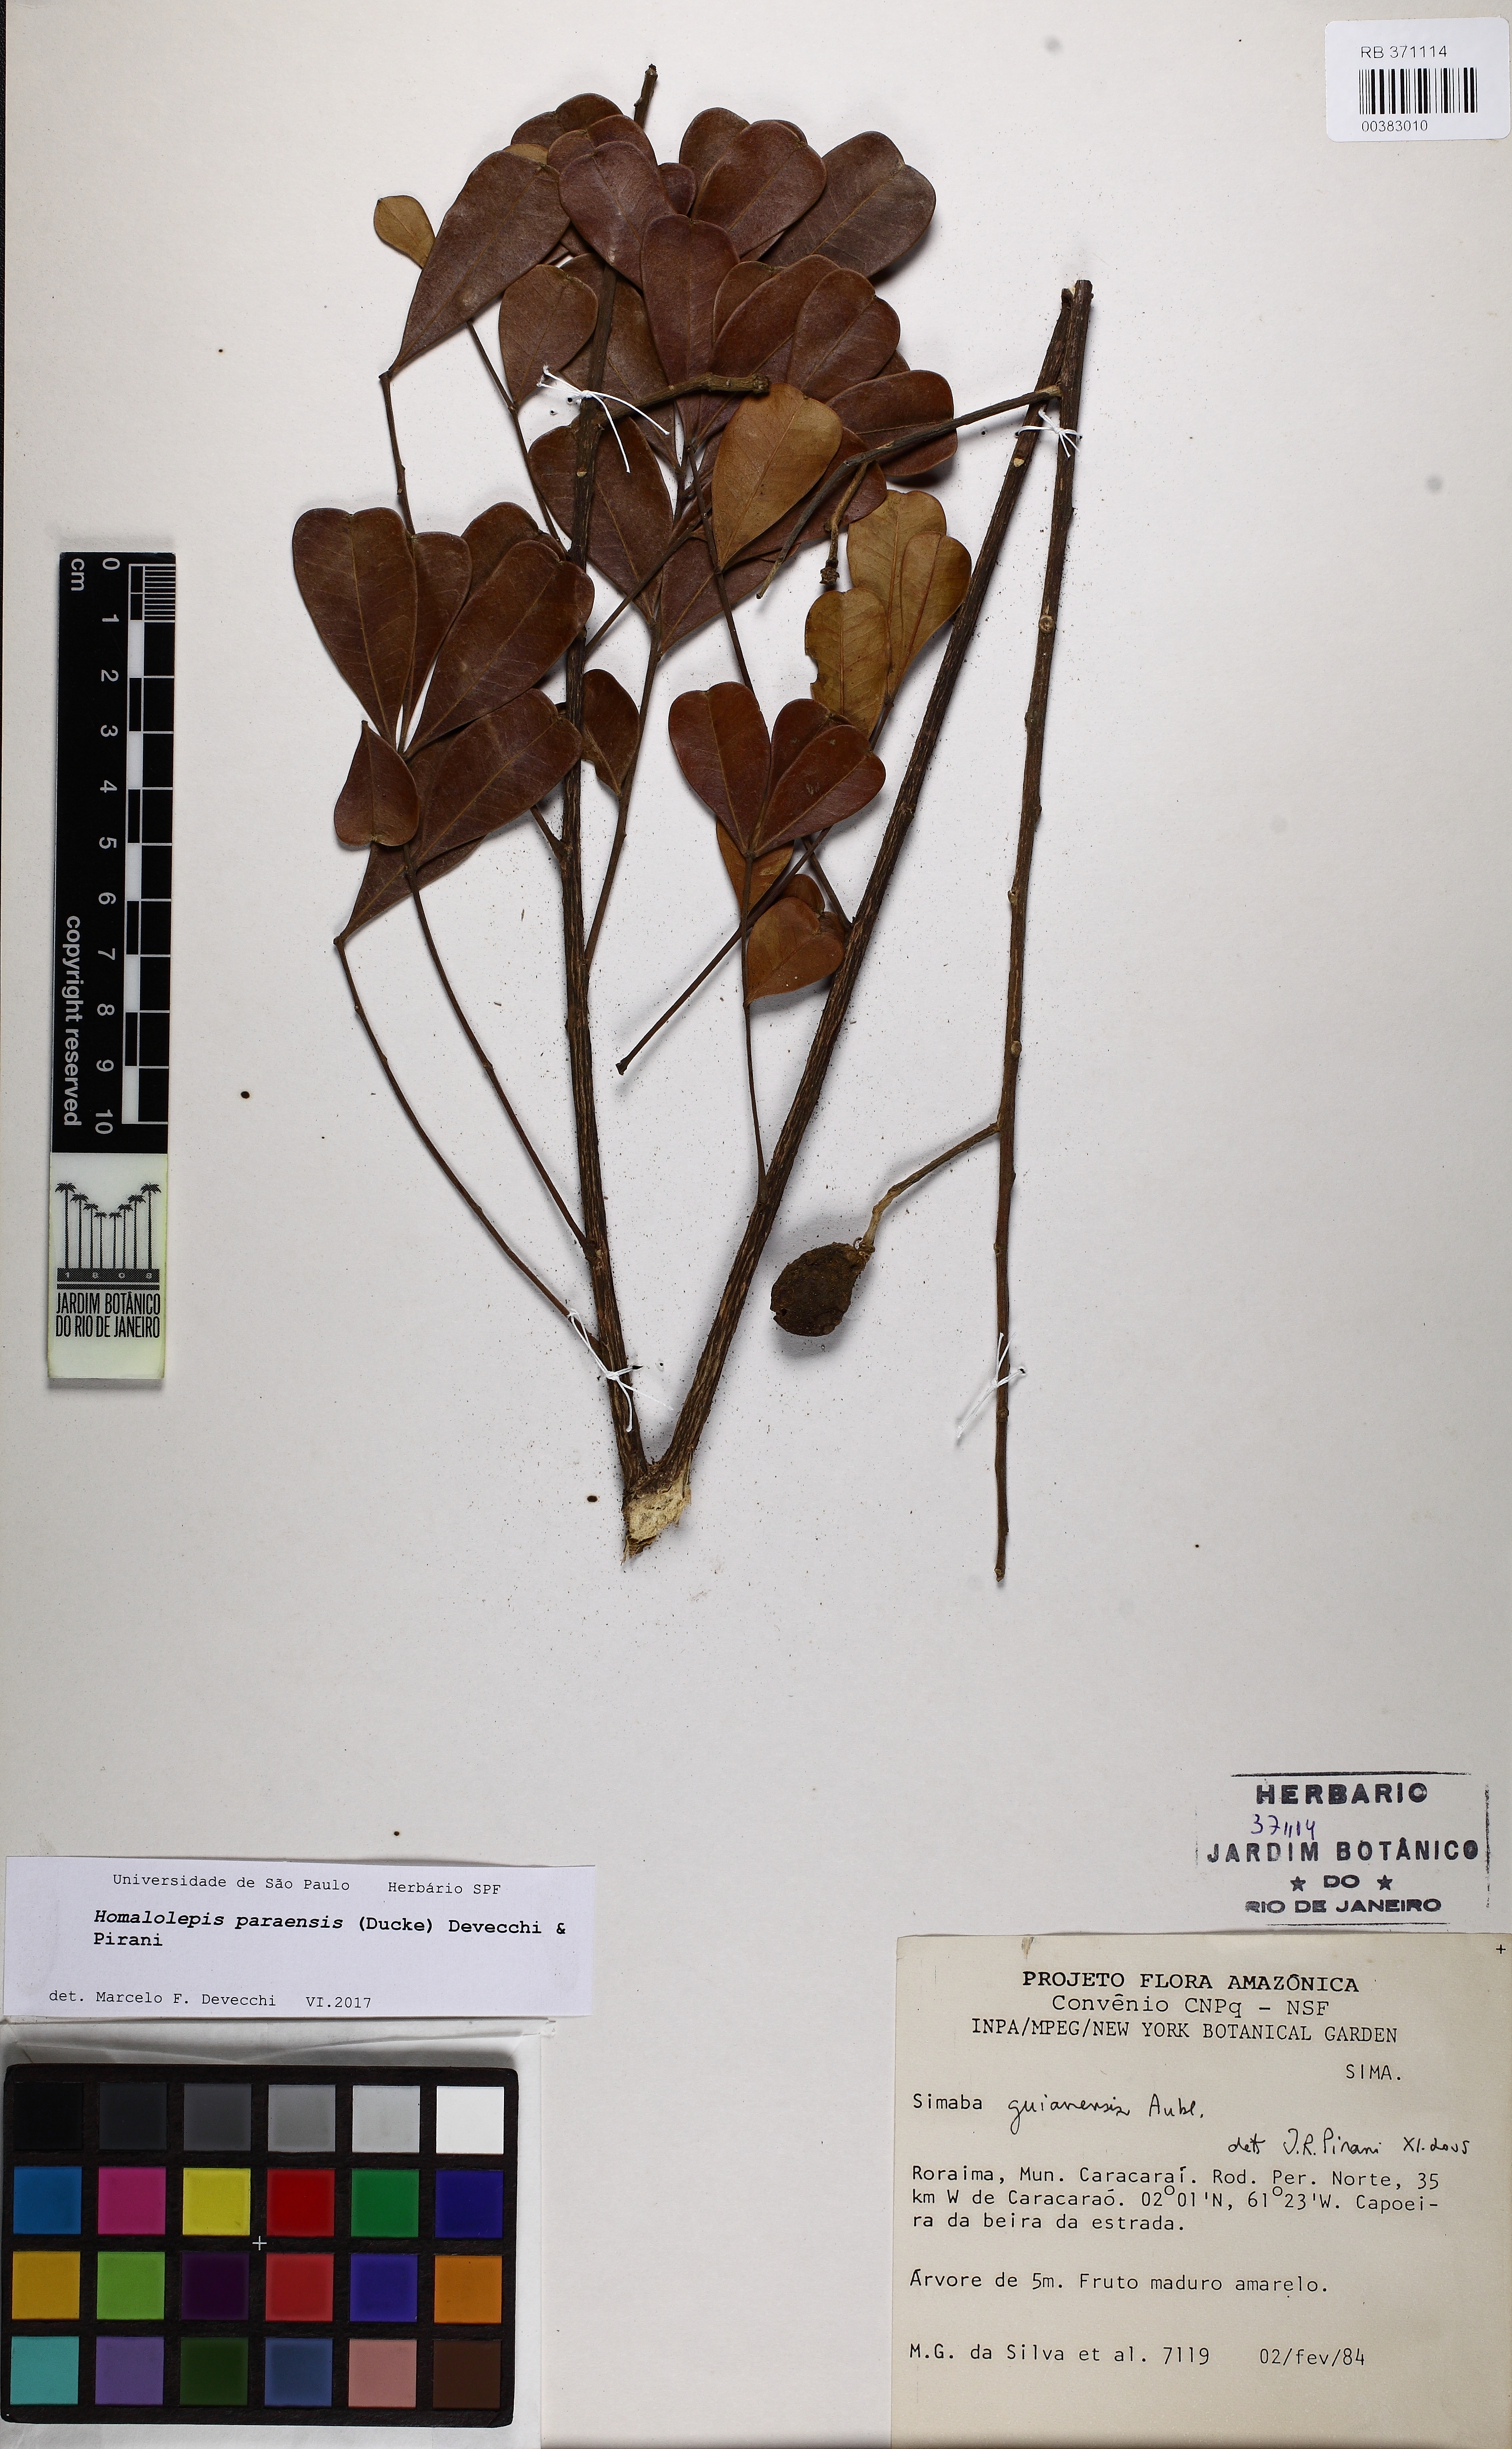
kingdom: Plantae
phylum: Tracheophyta
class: Magnoliopsida
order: Sapindales
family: Simaroubaceae
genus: Homalolepis
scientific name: Homalolepis paraensis
